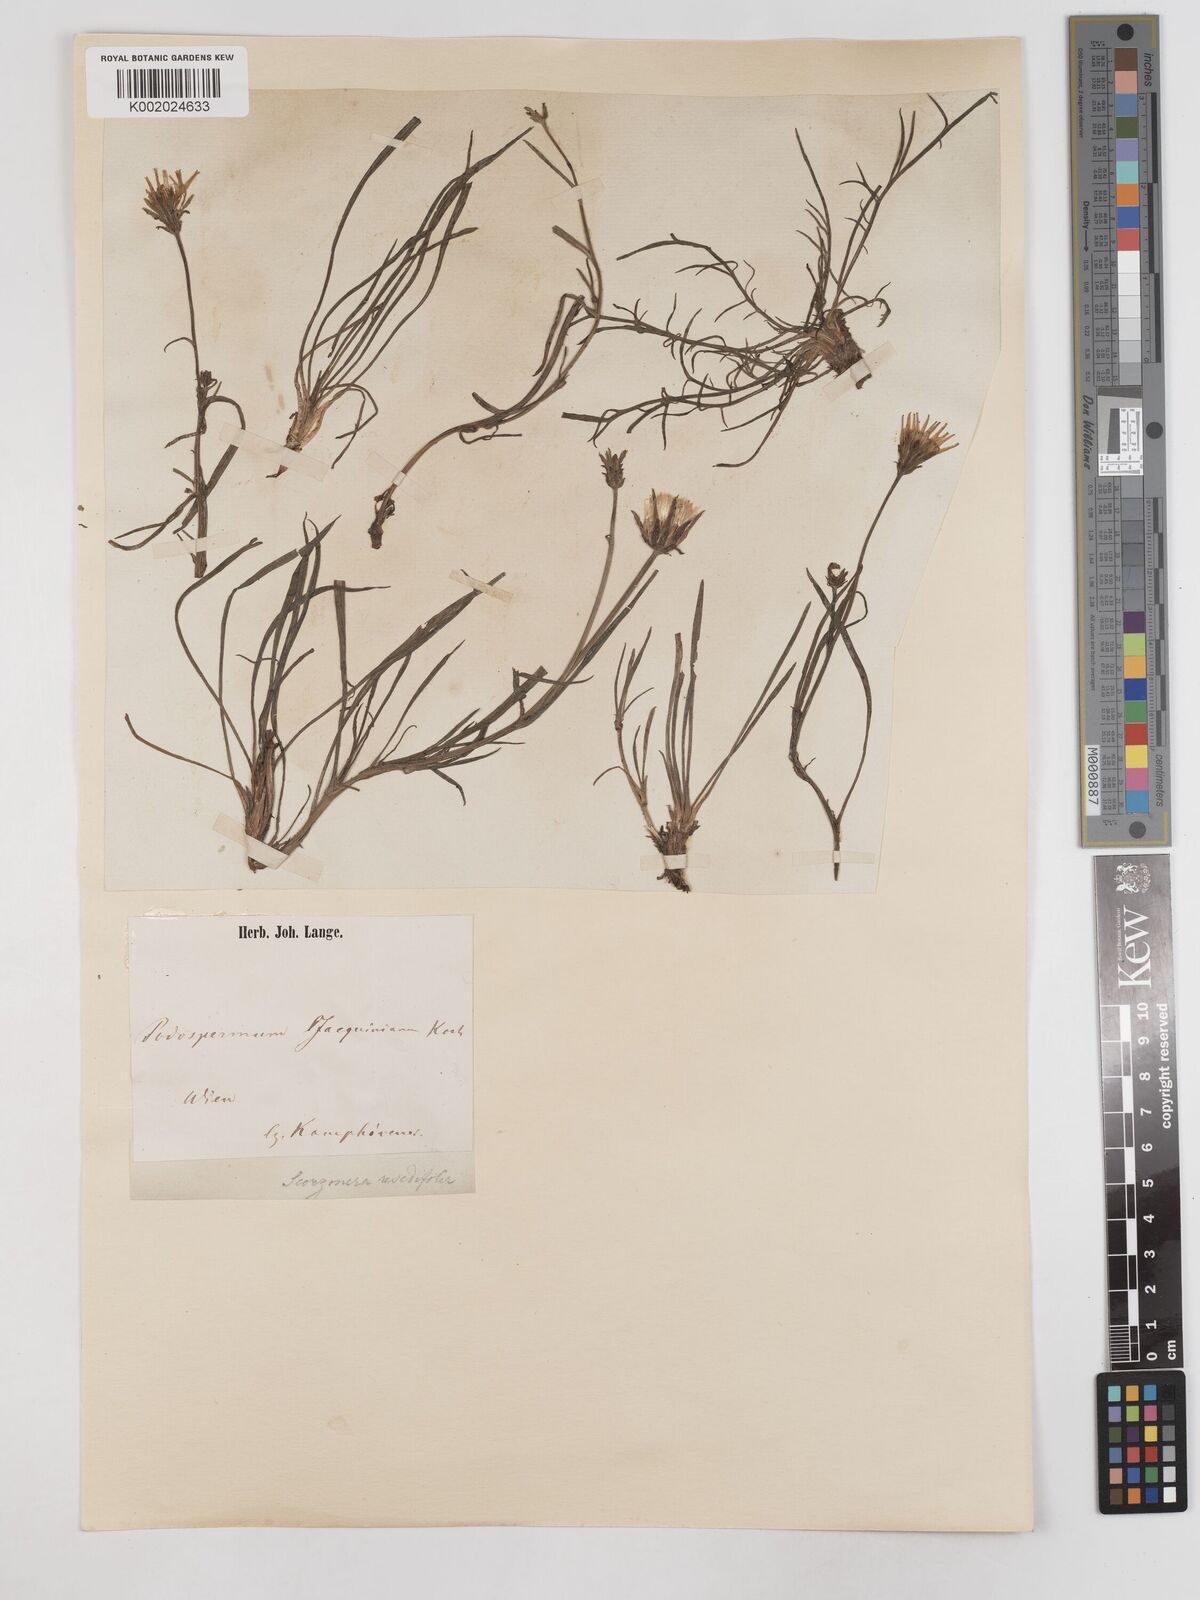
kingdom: Plantae
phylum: Tracheophyta
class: Magnoliopsida
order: Asterales
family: Asteraceae
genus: Scorzonera
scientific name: Scorzonera cana
